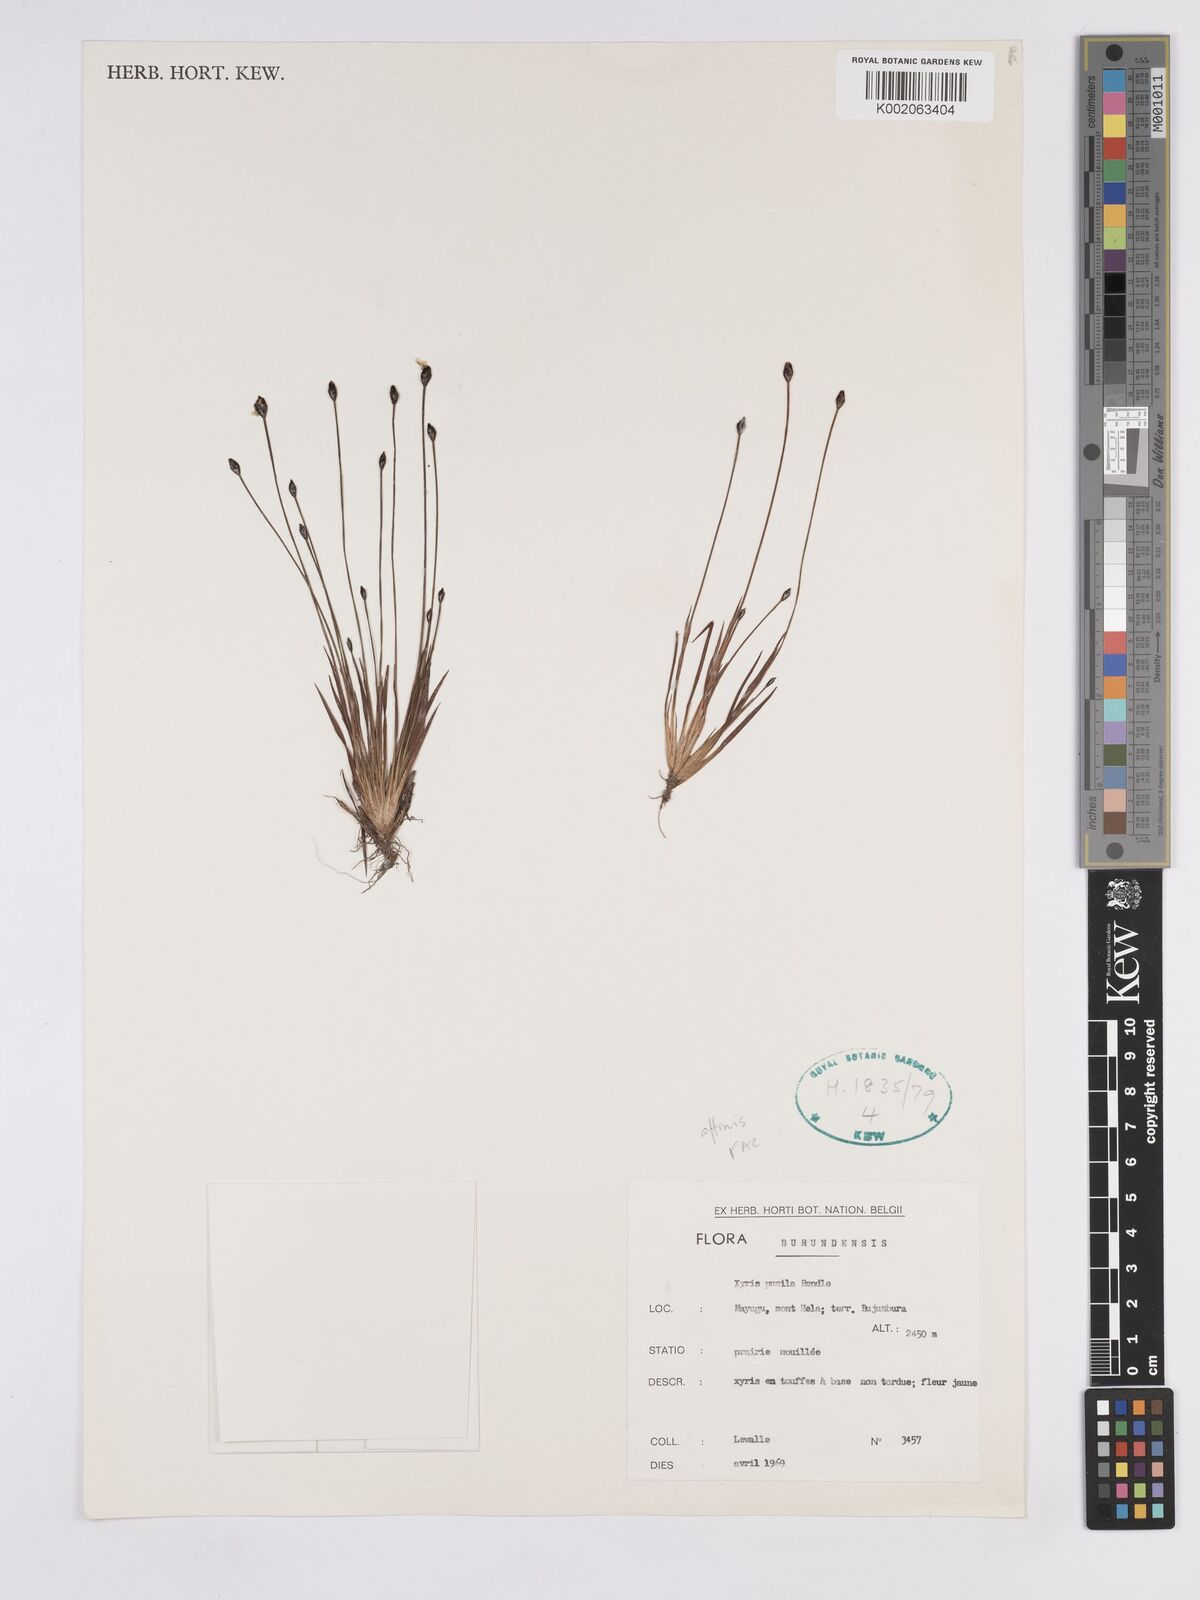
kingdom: Plantae
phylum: Tracheophyta
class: Liliopsida
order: Poales
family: Xyridaceae
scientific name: Xyridaceae
